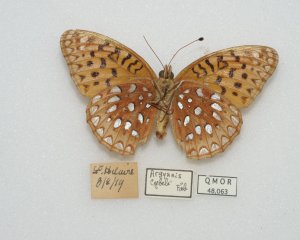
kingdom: Animalia
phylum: Arthropoda
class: Insecta
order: Lepidoptera
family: Nymphalidae
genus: Speyeria
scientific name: Speyeria cybele
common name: Great Spangled Fritillary
